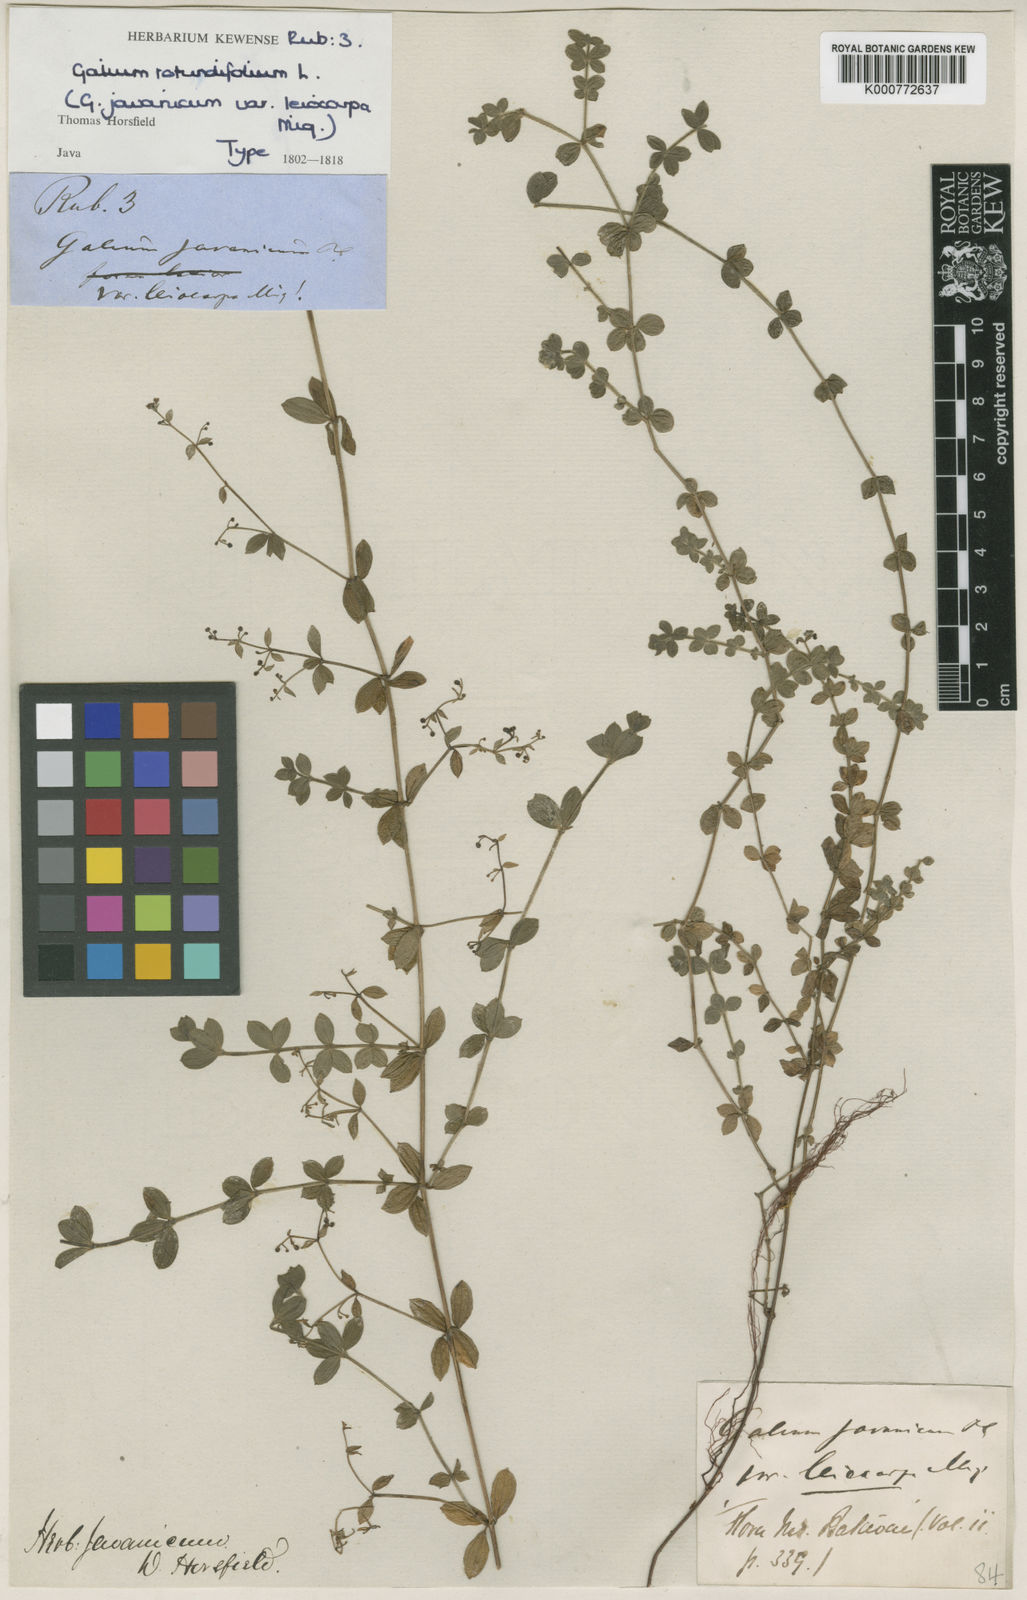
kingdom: Plantae
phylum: Tracheophyta
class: Magnoliopsida
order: Gentianales
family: Rubiaceae
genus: Galium
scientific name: Galium javanicum
